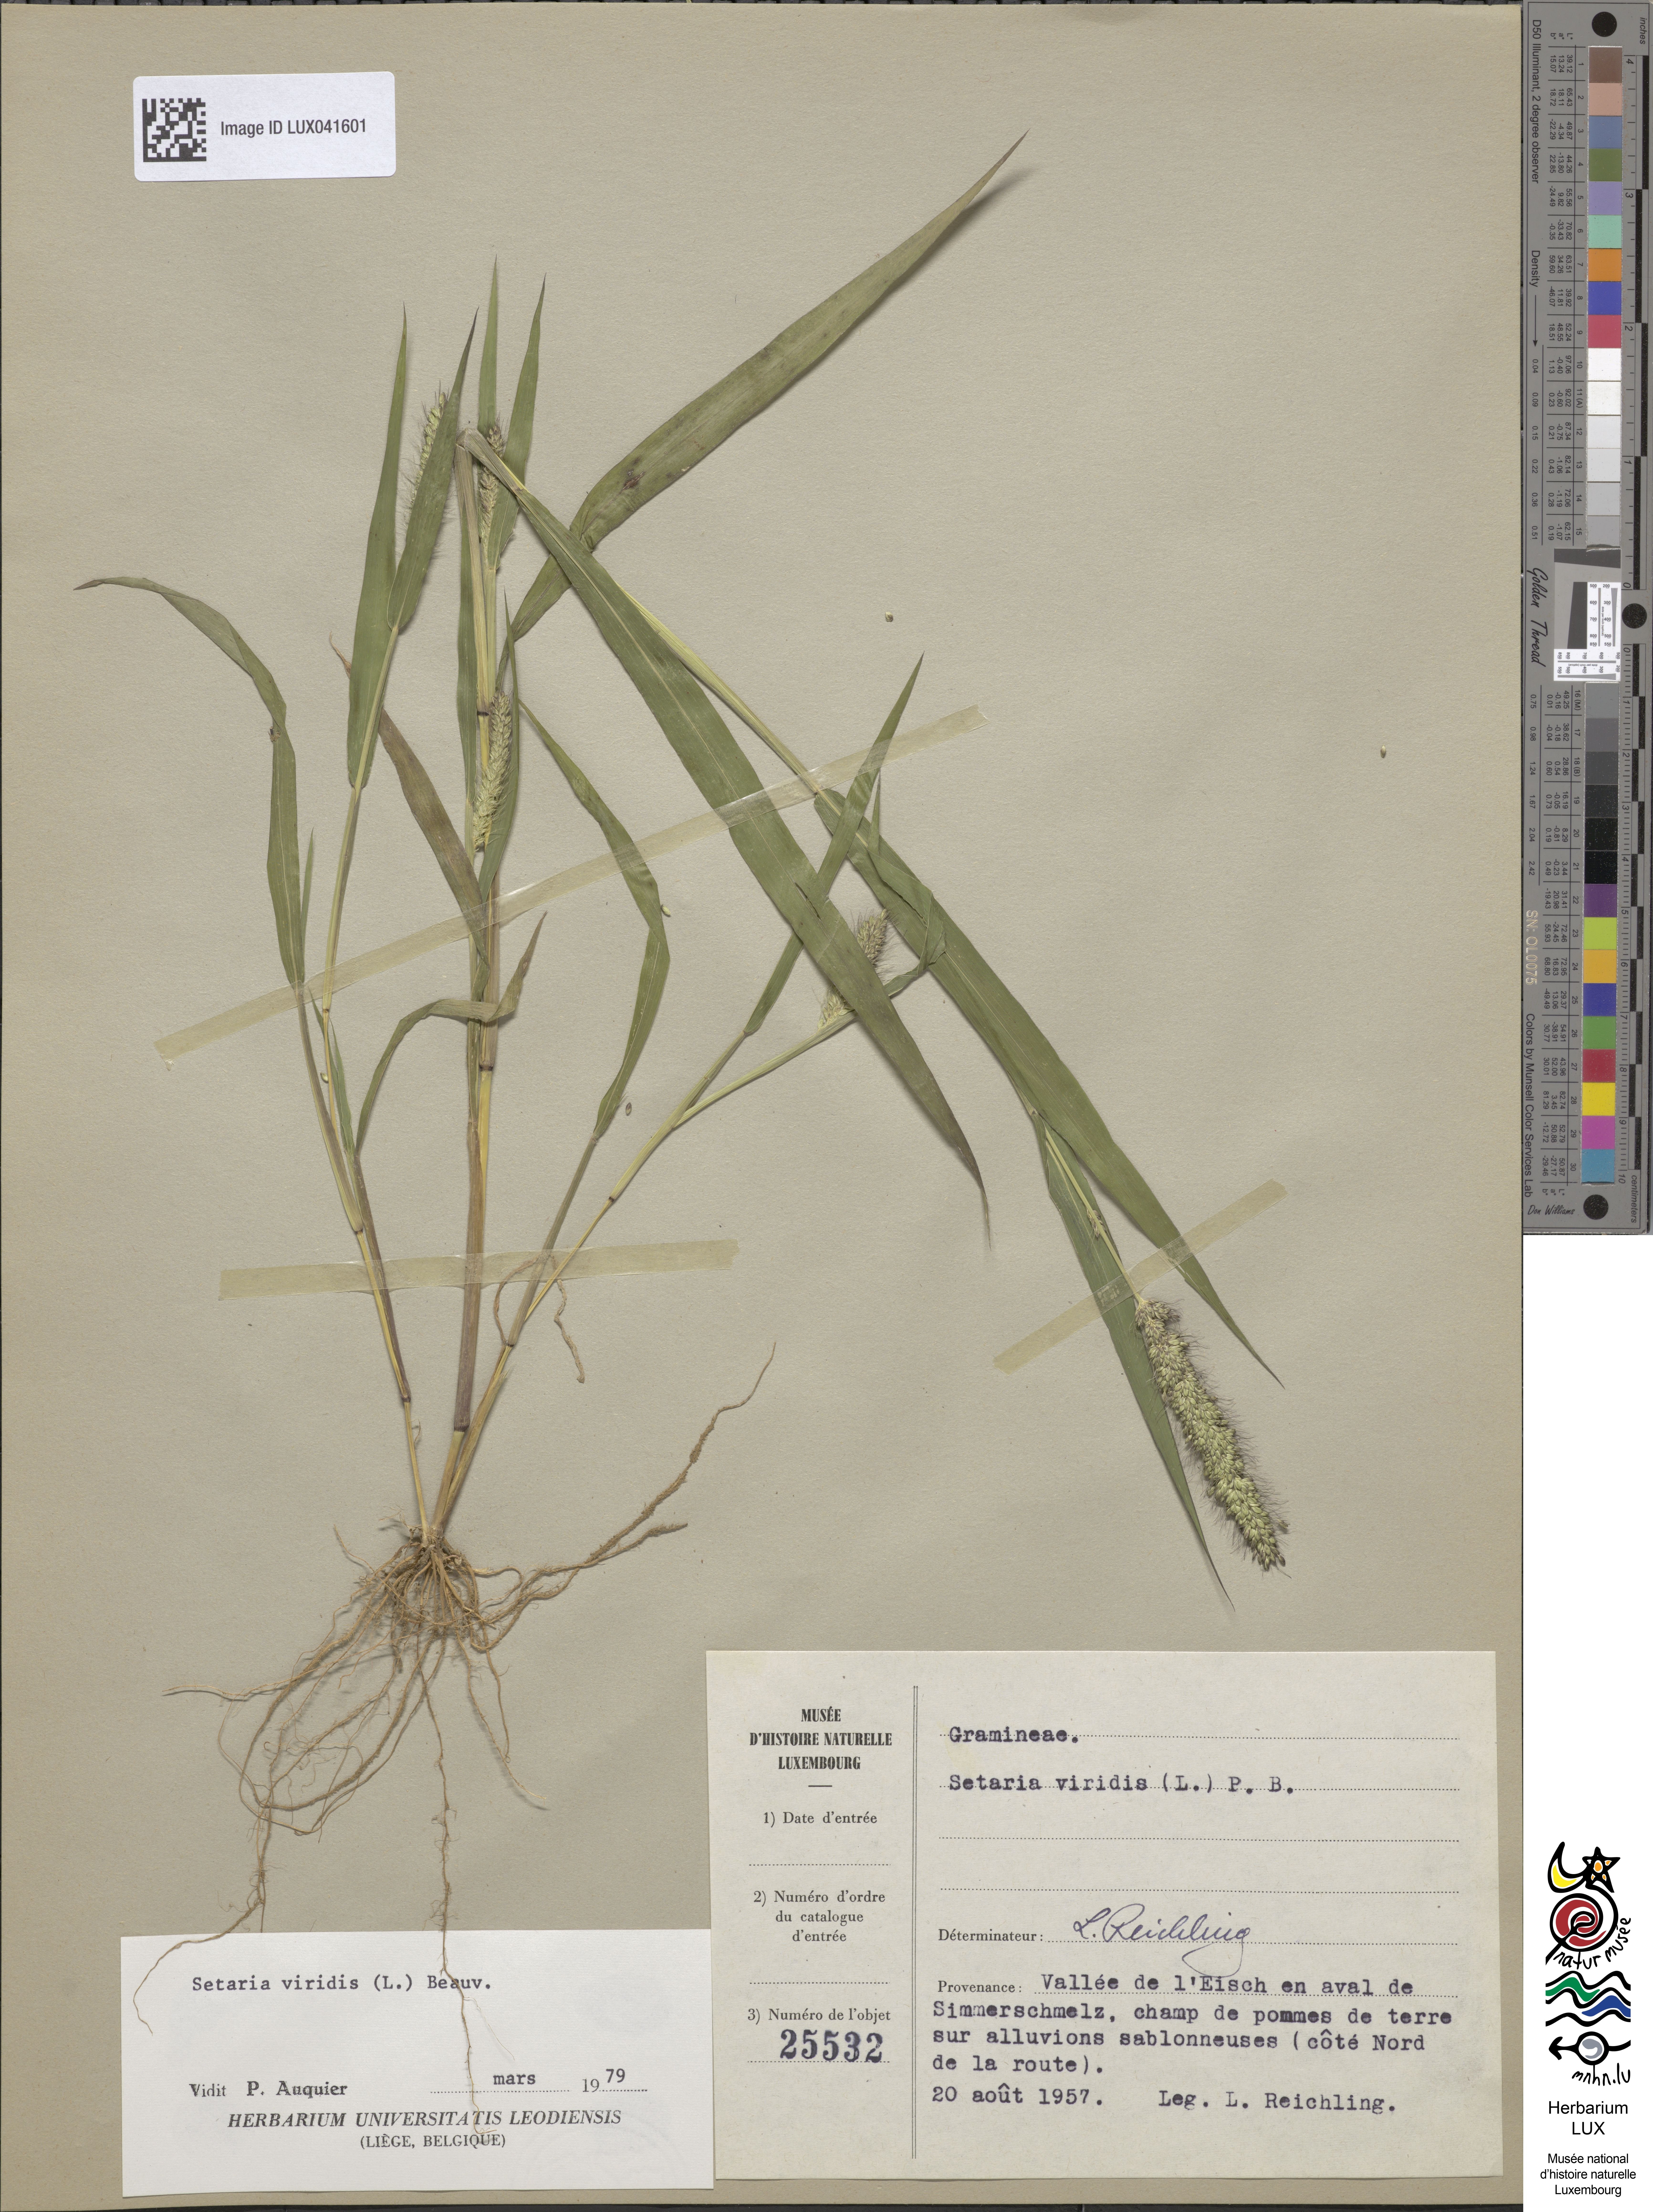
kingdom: Plantae
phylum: Tracheophyta
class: Liliopsida
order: Poales
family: Poaceae
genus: Setaria
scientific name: Setaria viridis
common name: Green bristlegrass
